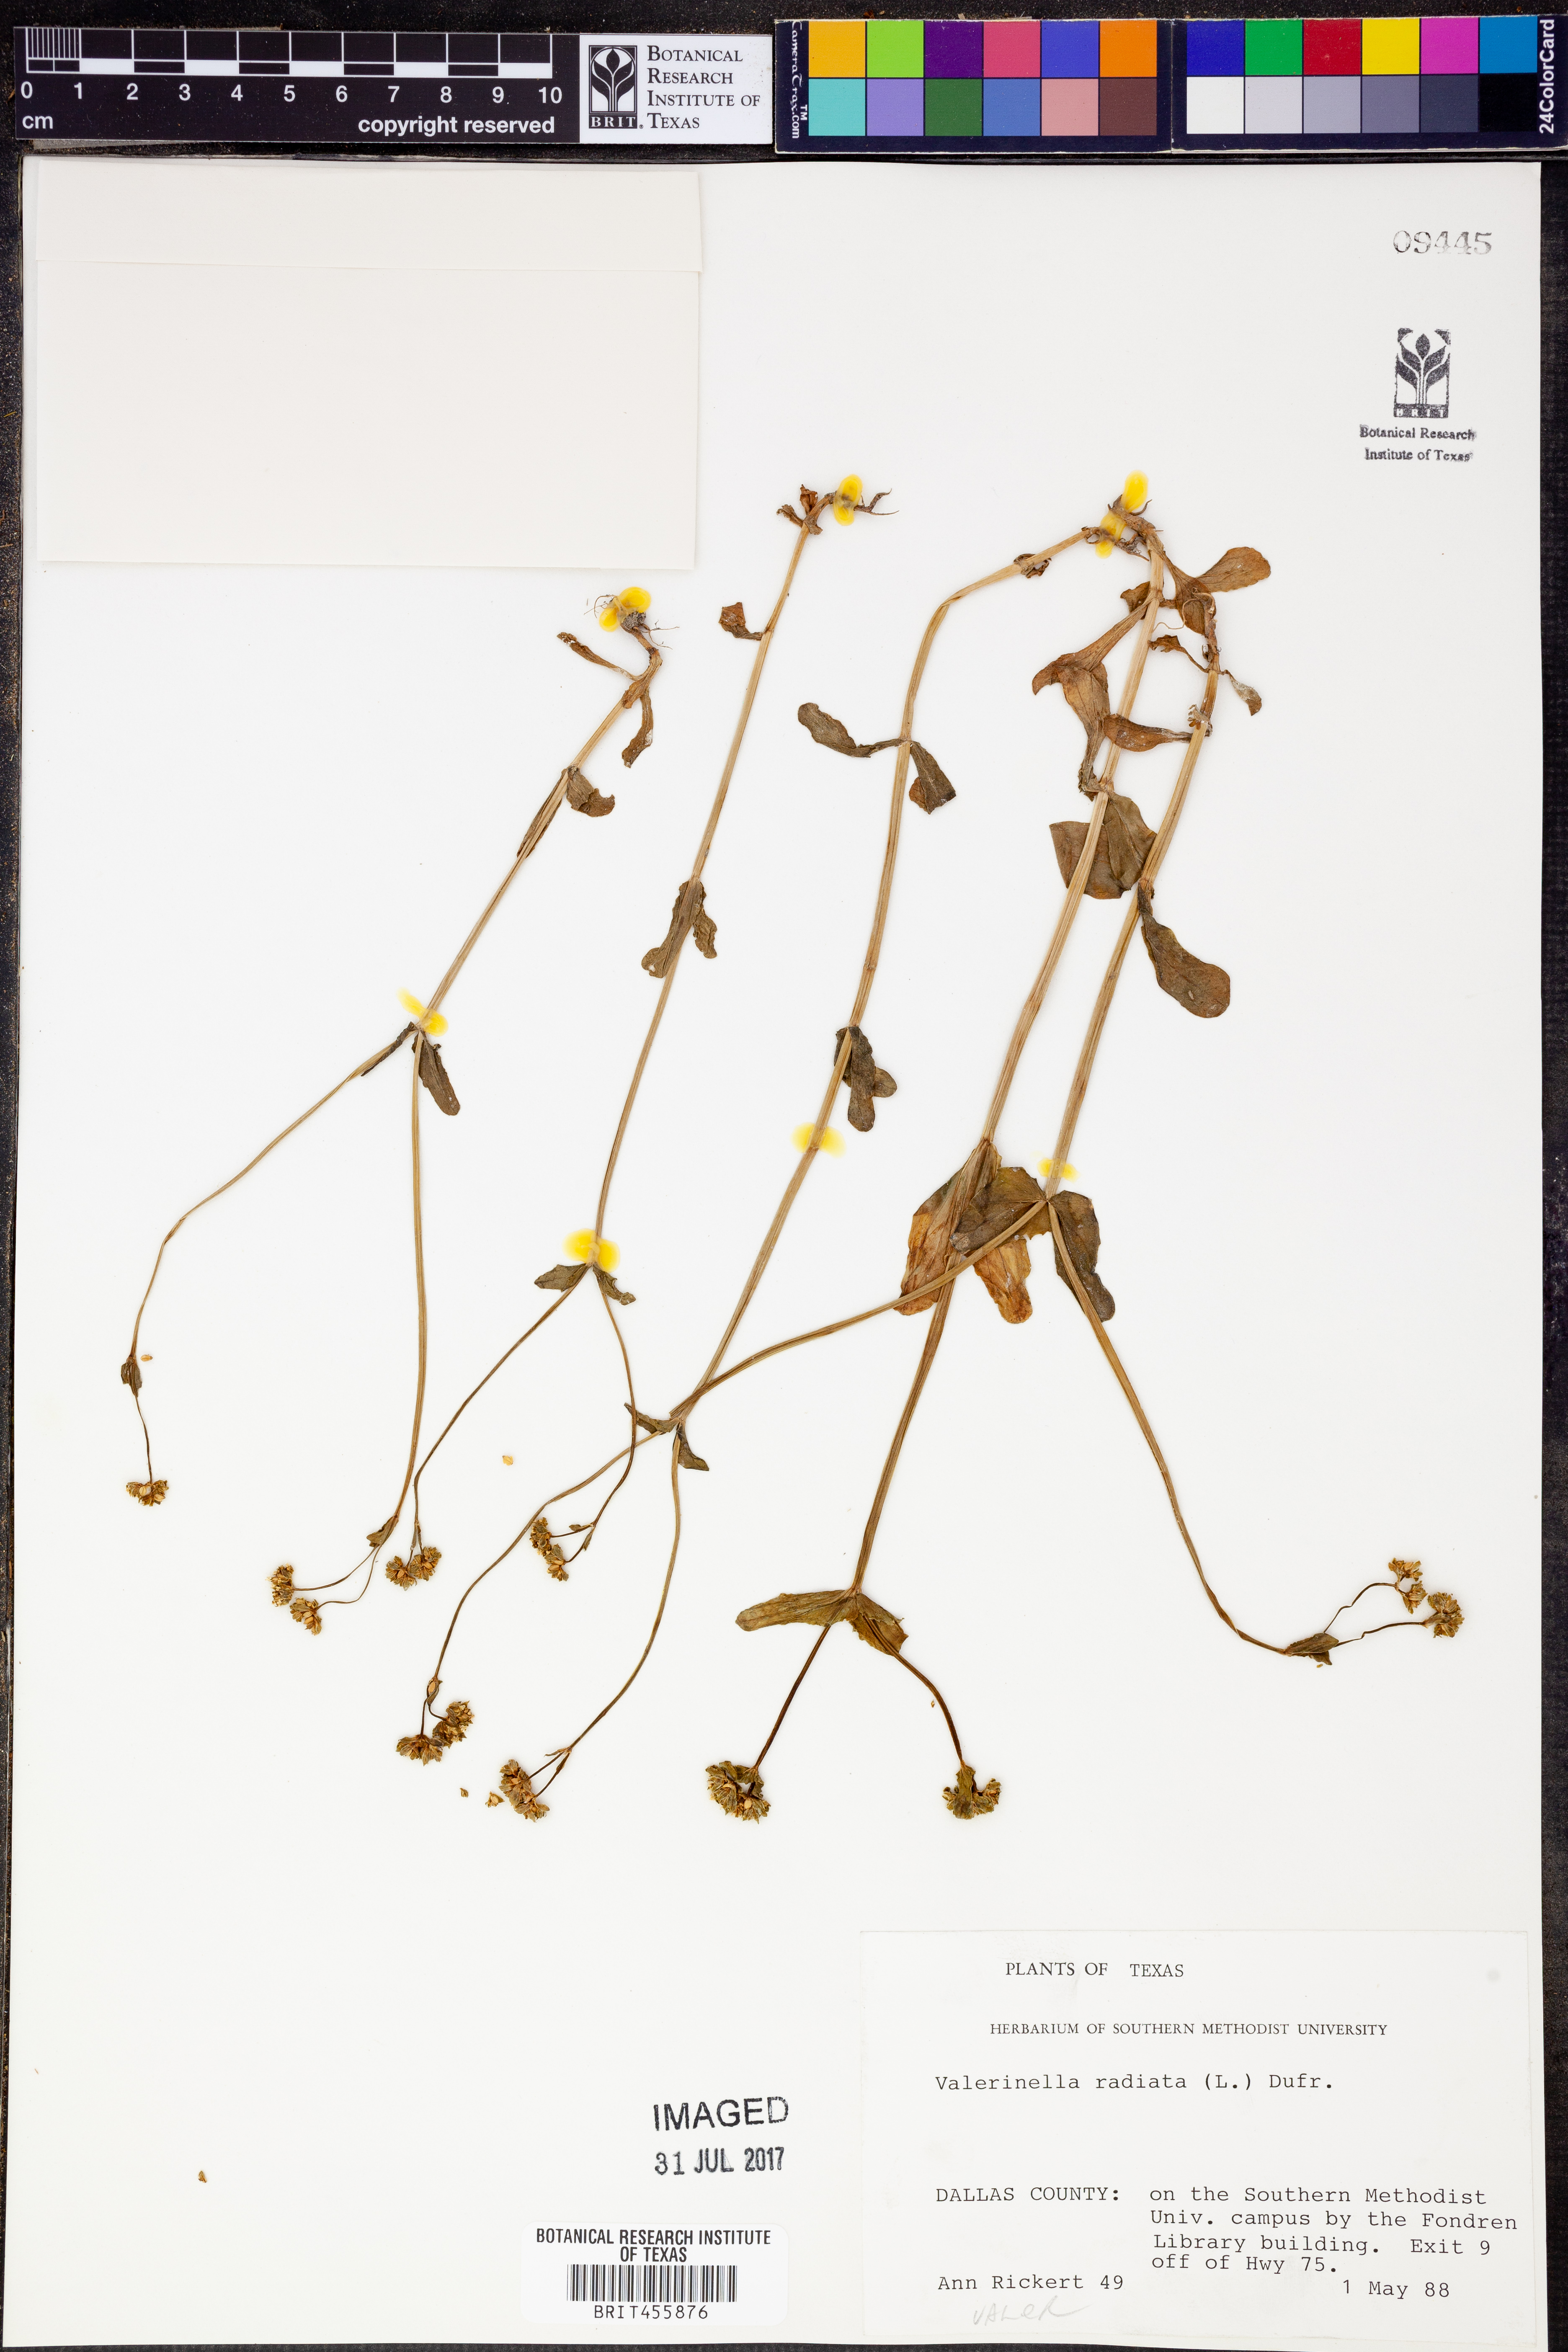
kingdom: Plantae
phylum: Tracheophyta
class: Magnoliopsida
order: Dipsacales
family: Caprifoliaceae
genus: Valerianella
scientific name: Valerianella radiata
